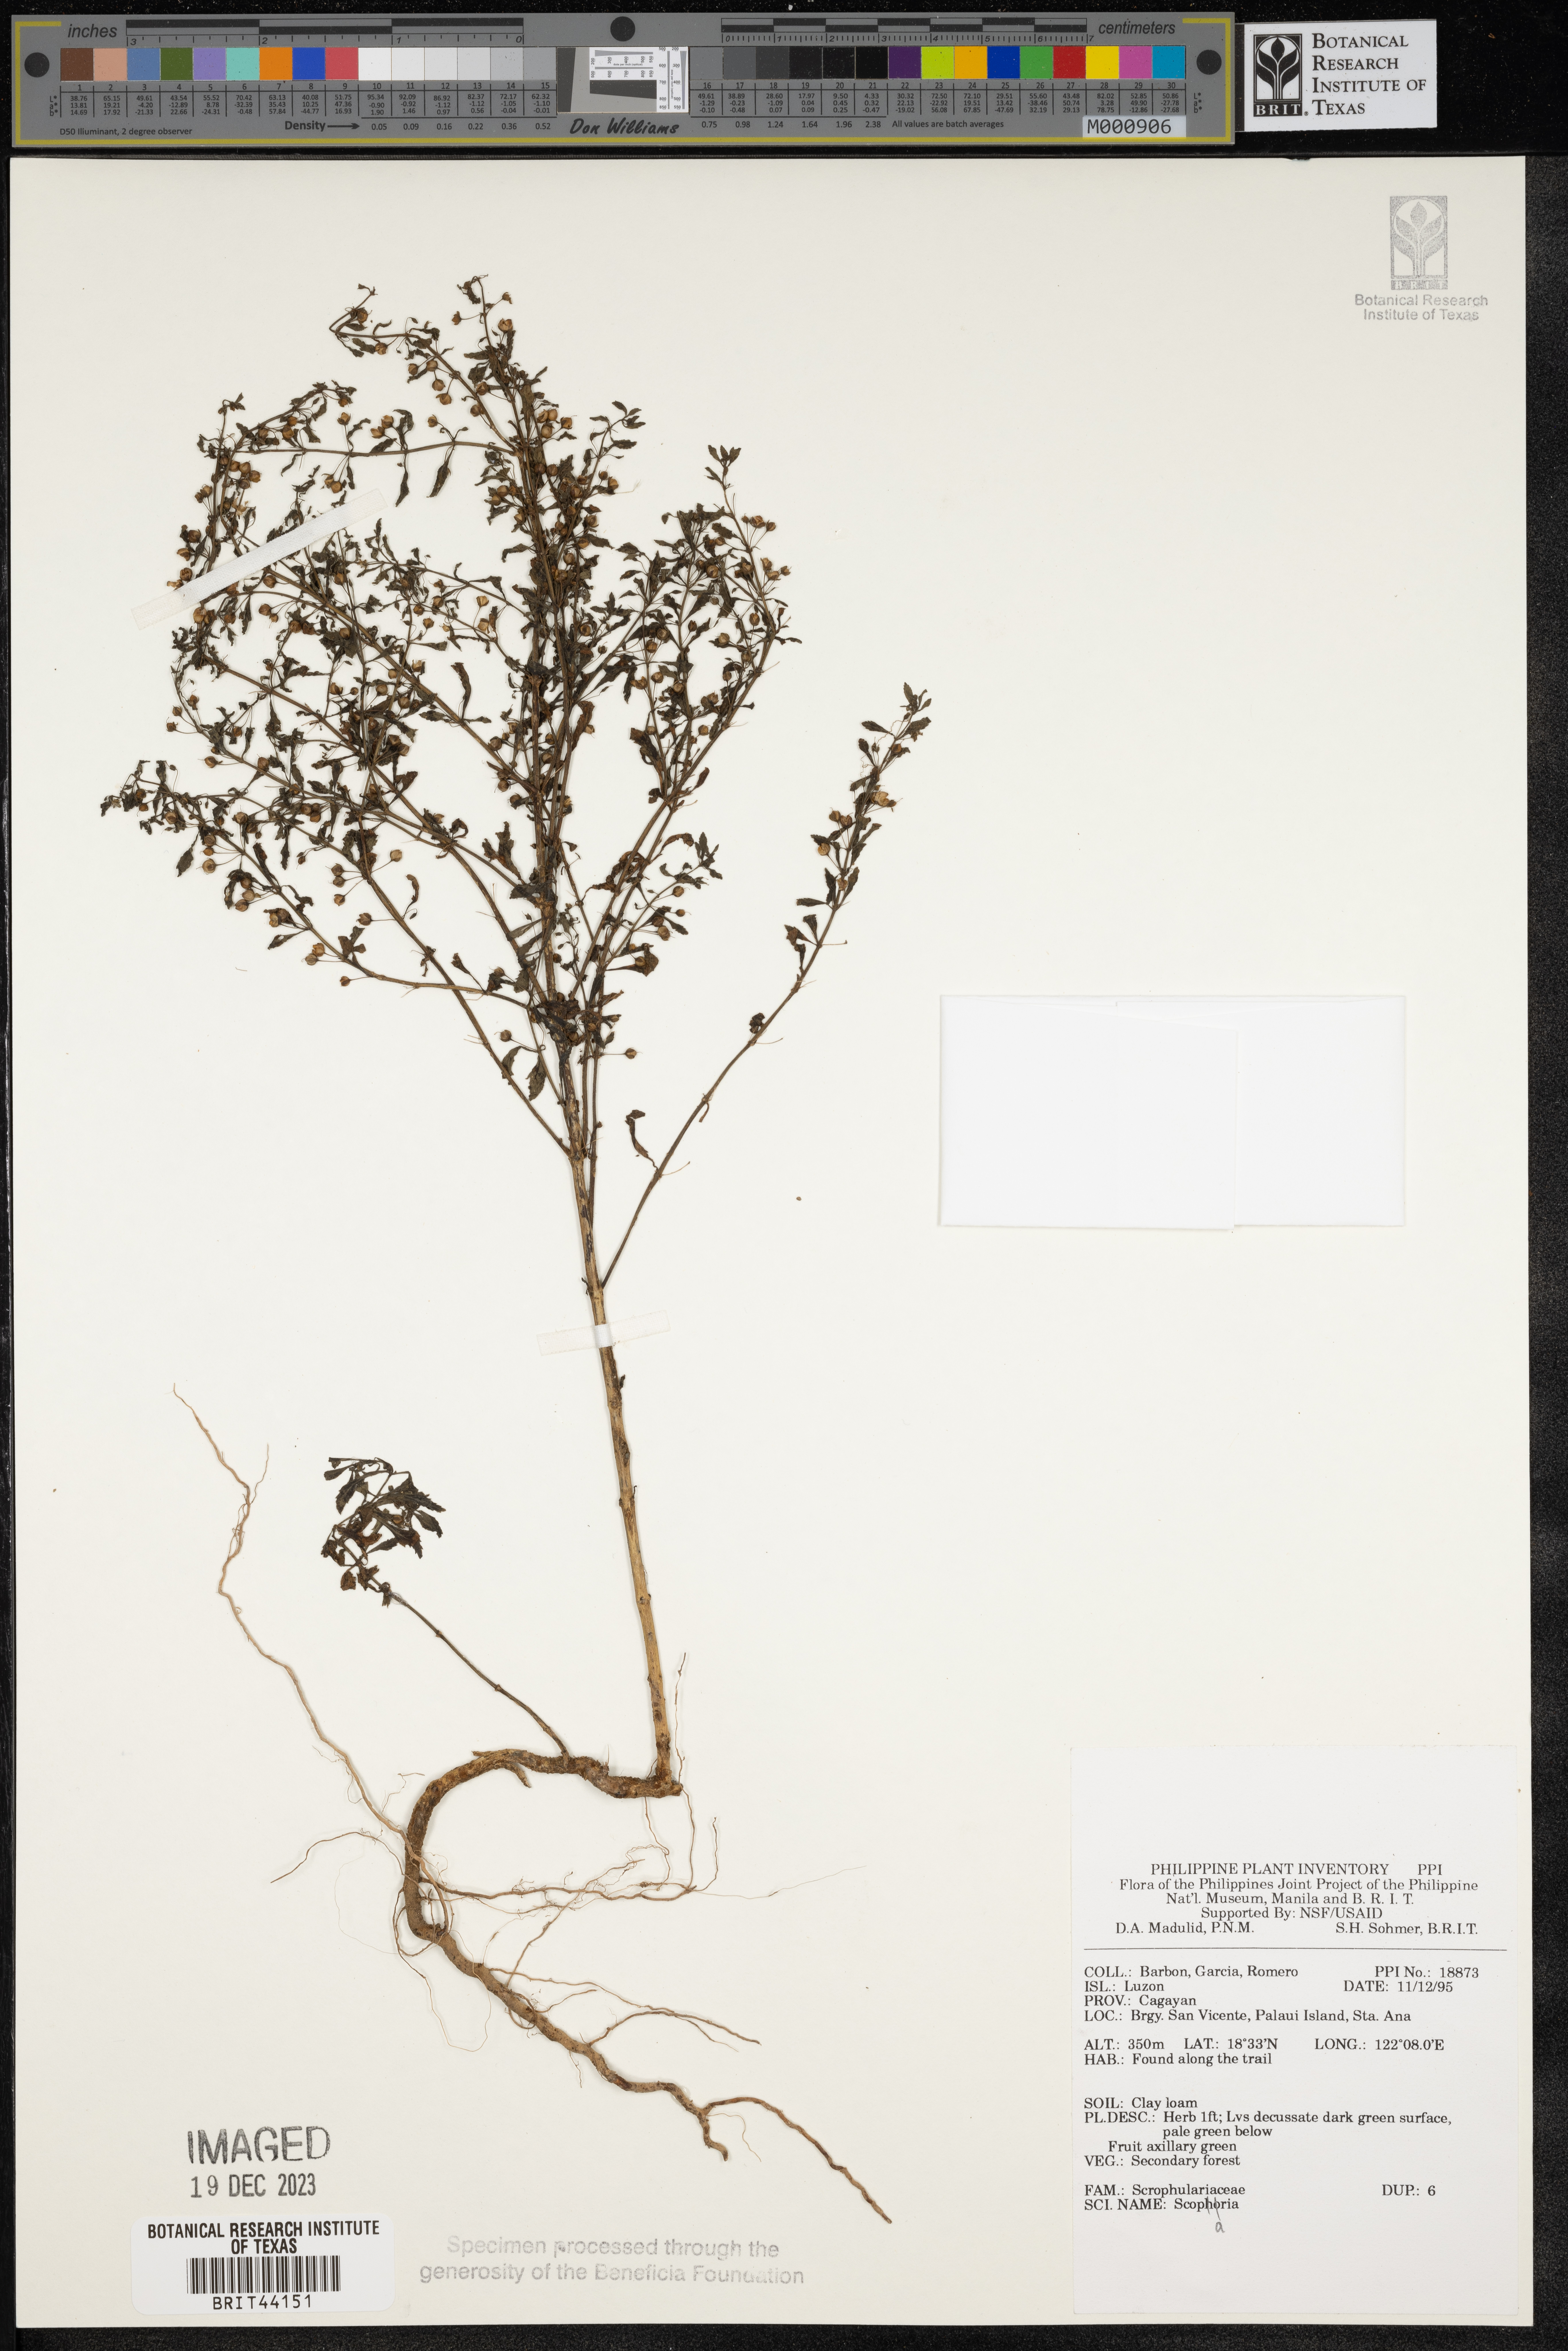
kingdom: Plantae
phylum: Tracheophyta
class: Magnoliopsida
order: Lamiales
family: Plantaginaceae
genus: Scoparia
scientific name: Scoparia
